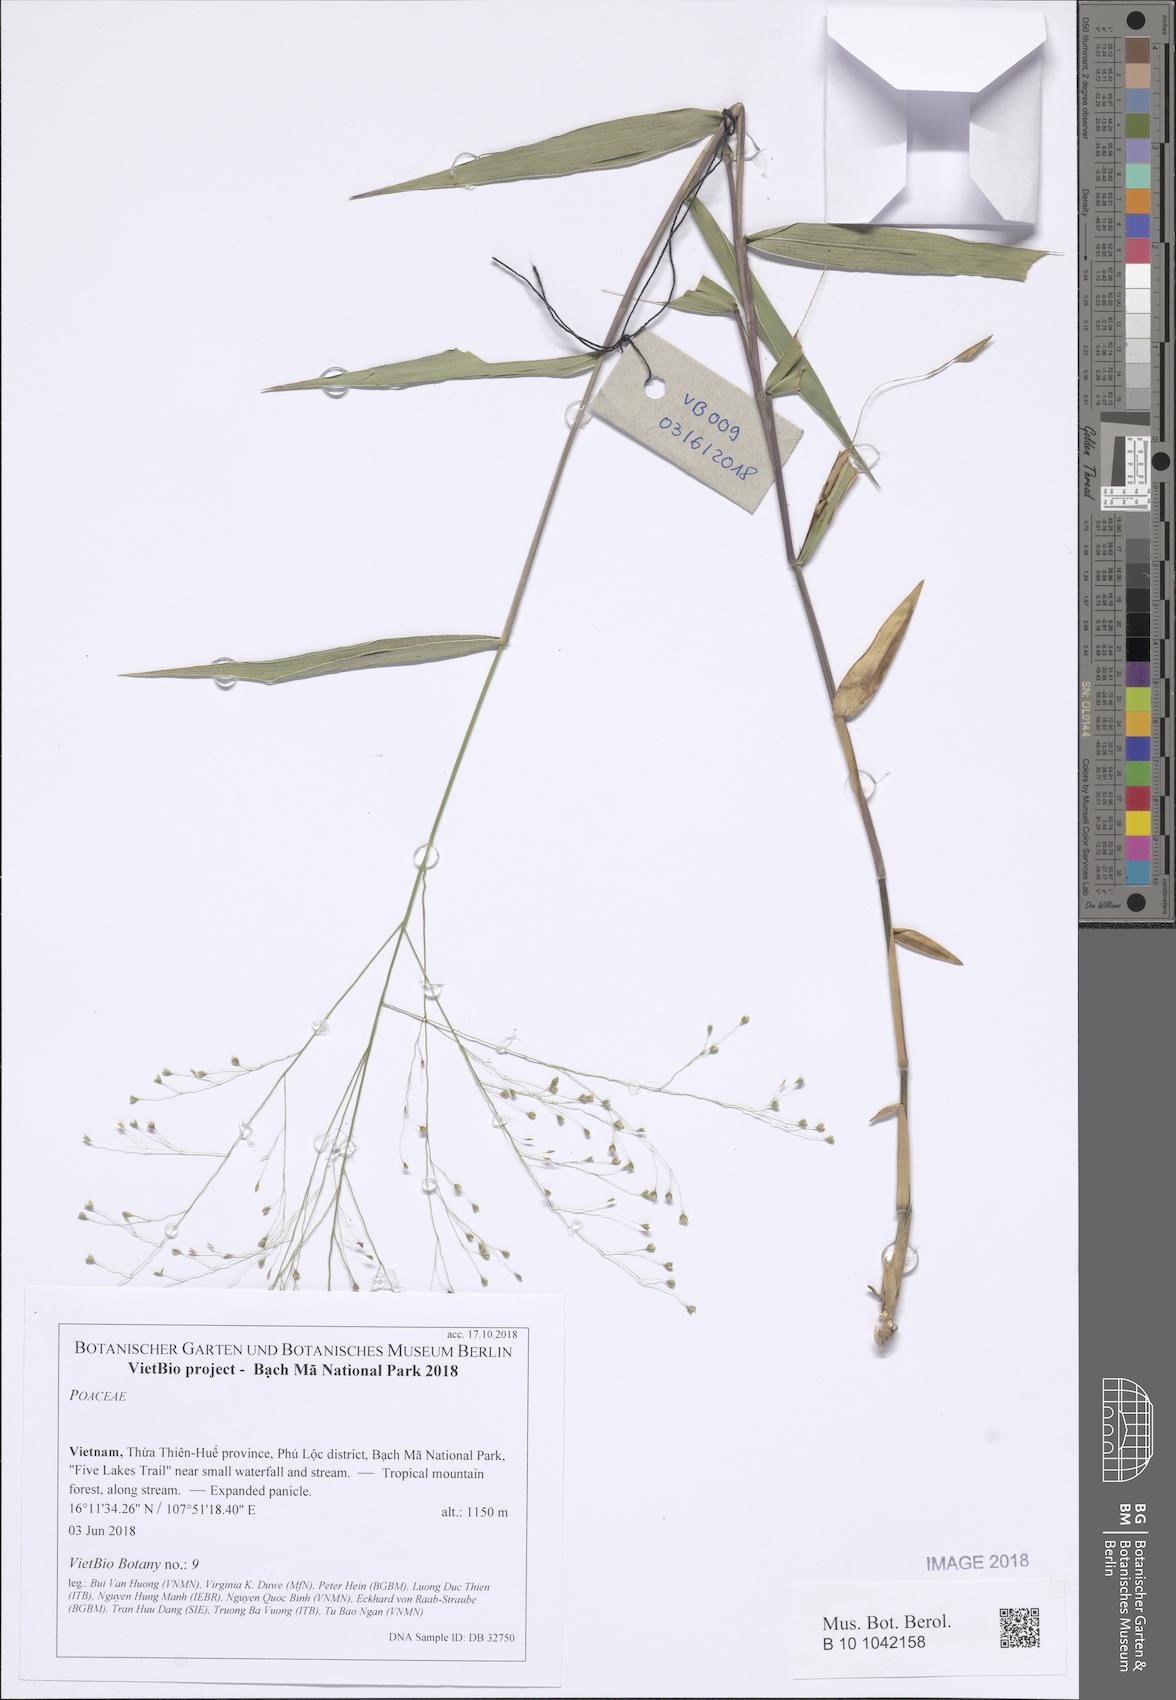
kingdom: Plantae
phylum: Tracheophyta
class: Liliopsida
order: Poales
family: Poaceae
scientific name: Poaceae
